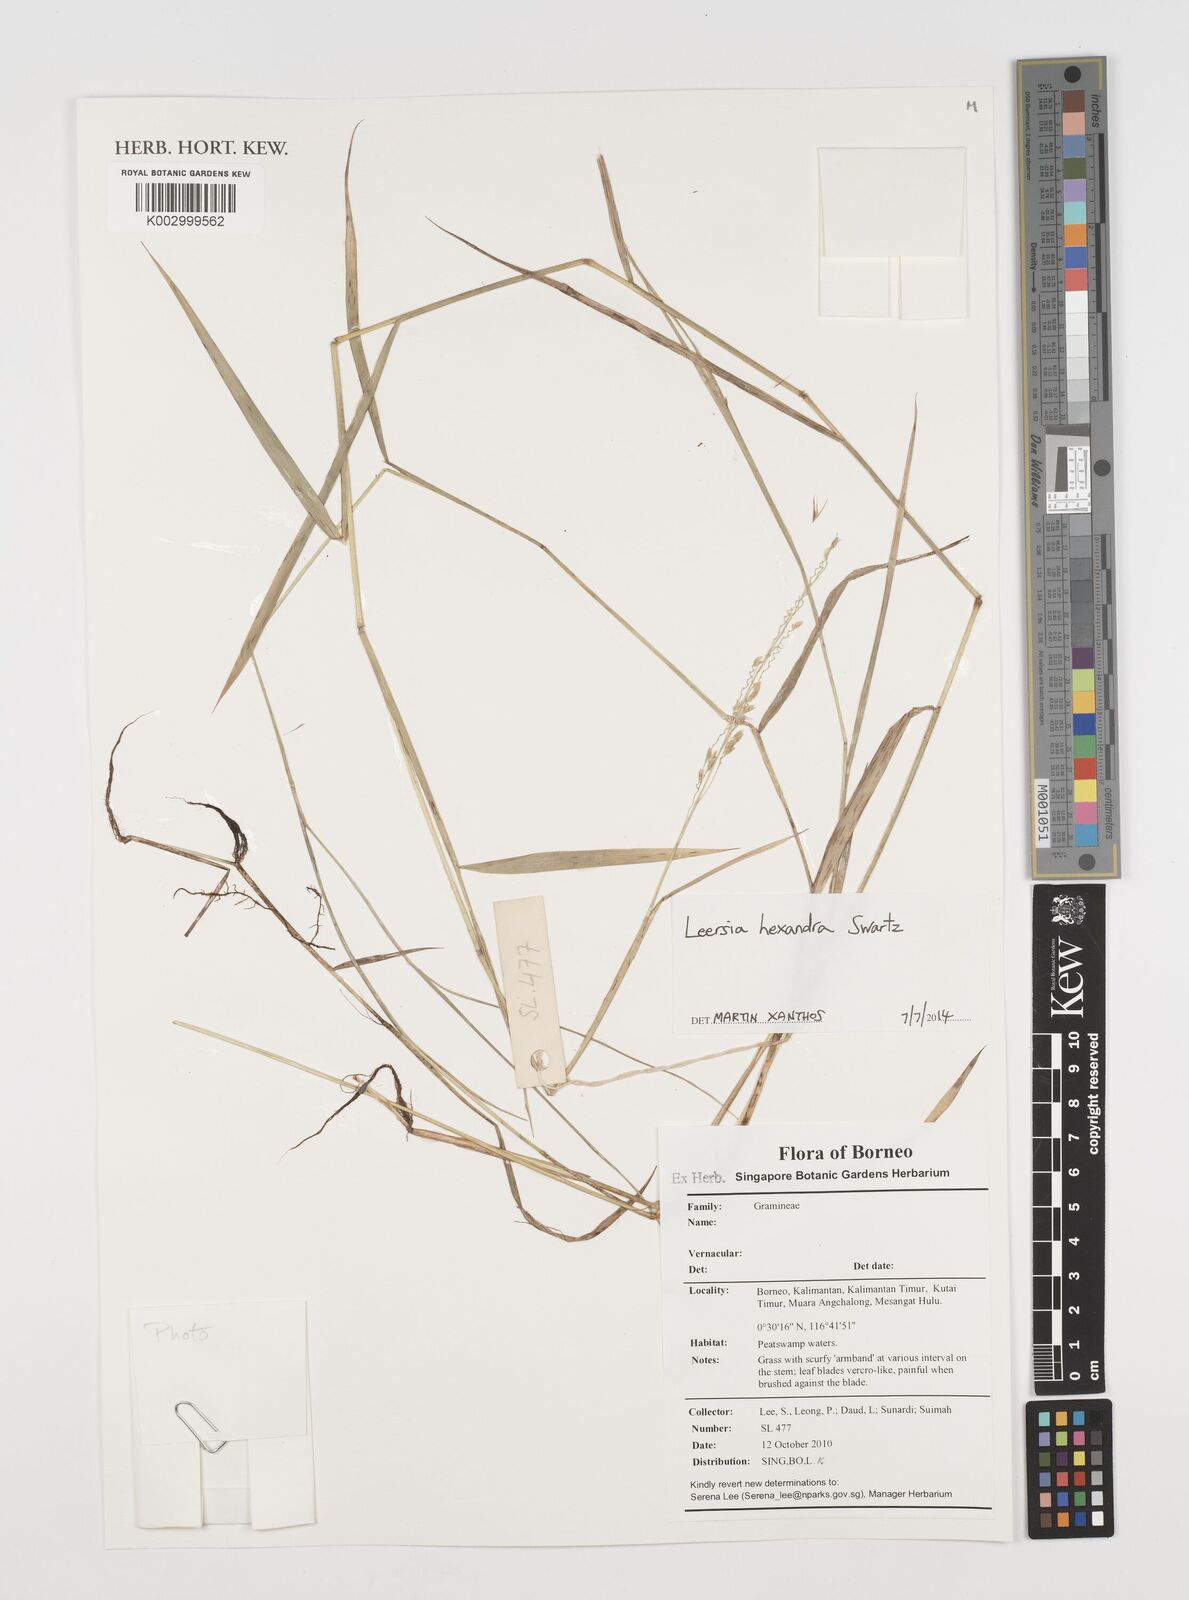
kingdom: Plantae
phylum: Tracheophyta
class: Liliopsida
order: Poales
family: Poaceae
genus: Leersia
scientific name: Leersia hexandra
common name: Southern cut grass
